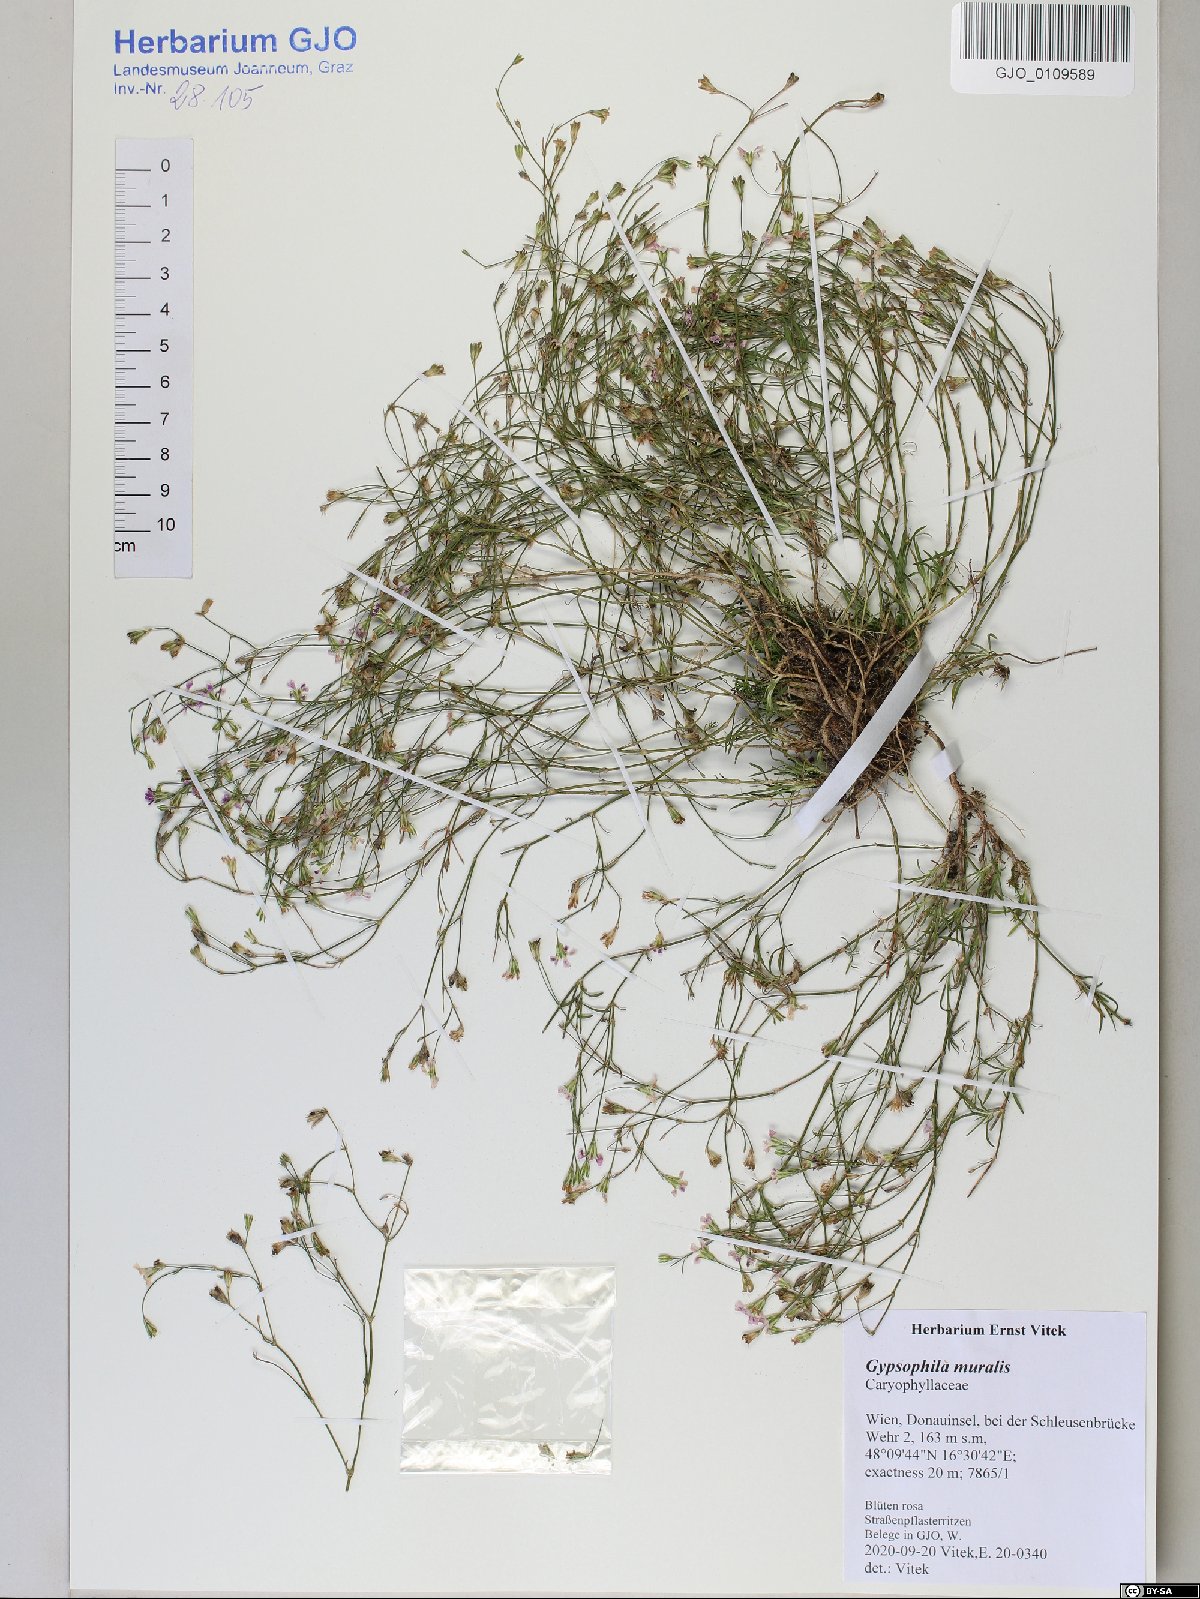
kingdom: Plantae
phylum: Tracheophyta
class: Magnoliopsida
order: Caryophyllales
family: Caryophyllaceae
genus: Psammophiliella
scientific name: Psammophiliella muralis
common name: Cushion baby's-breath
